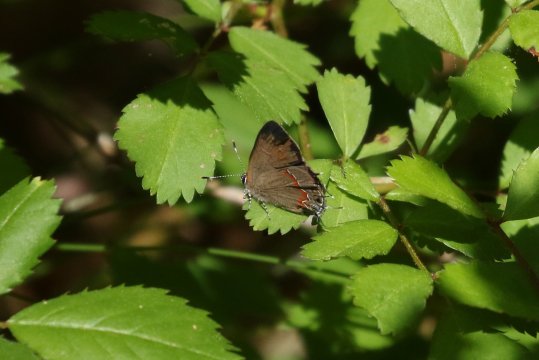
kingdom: Animalia
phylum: Arthropoda
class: Insecta
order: Lepidoptera
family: Lycaenidae
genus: Calycopis
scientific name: Calycopis cecrops
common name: Red-banded Hairstreak
